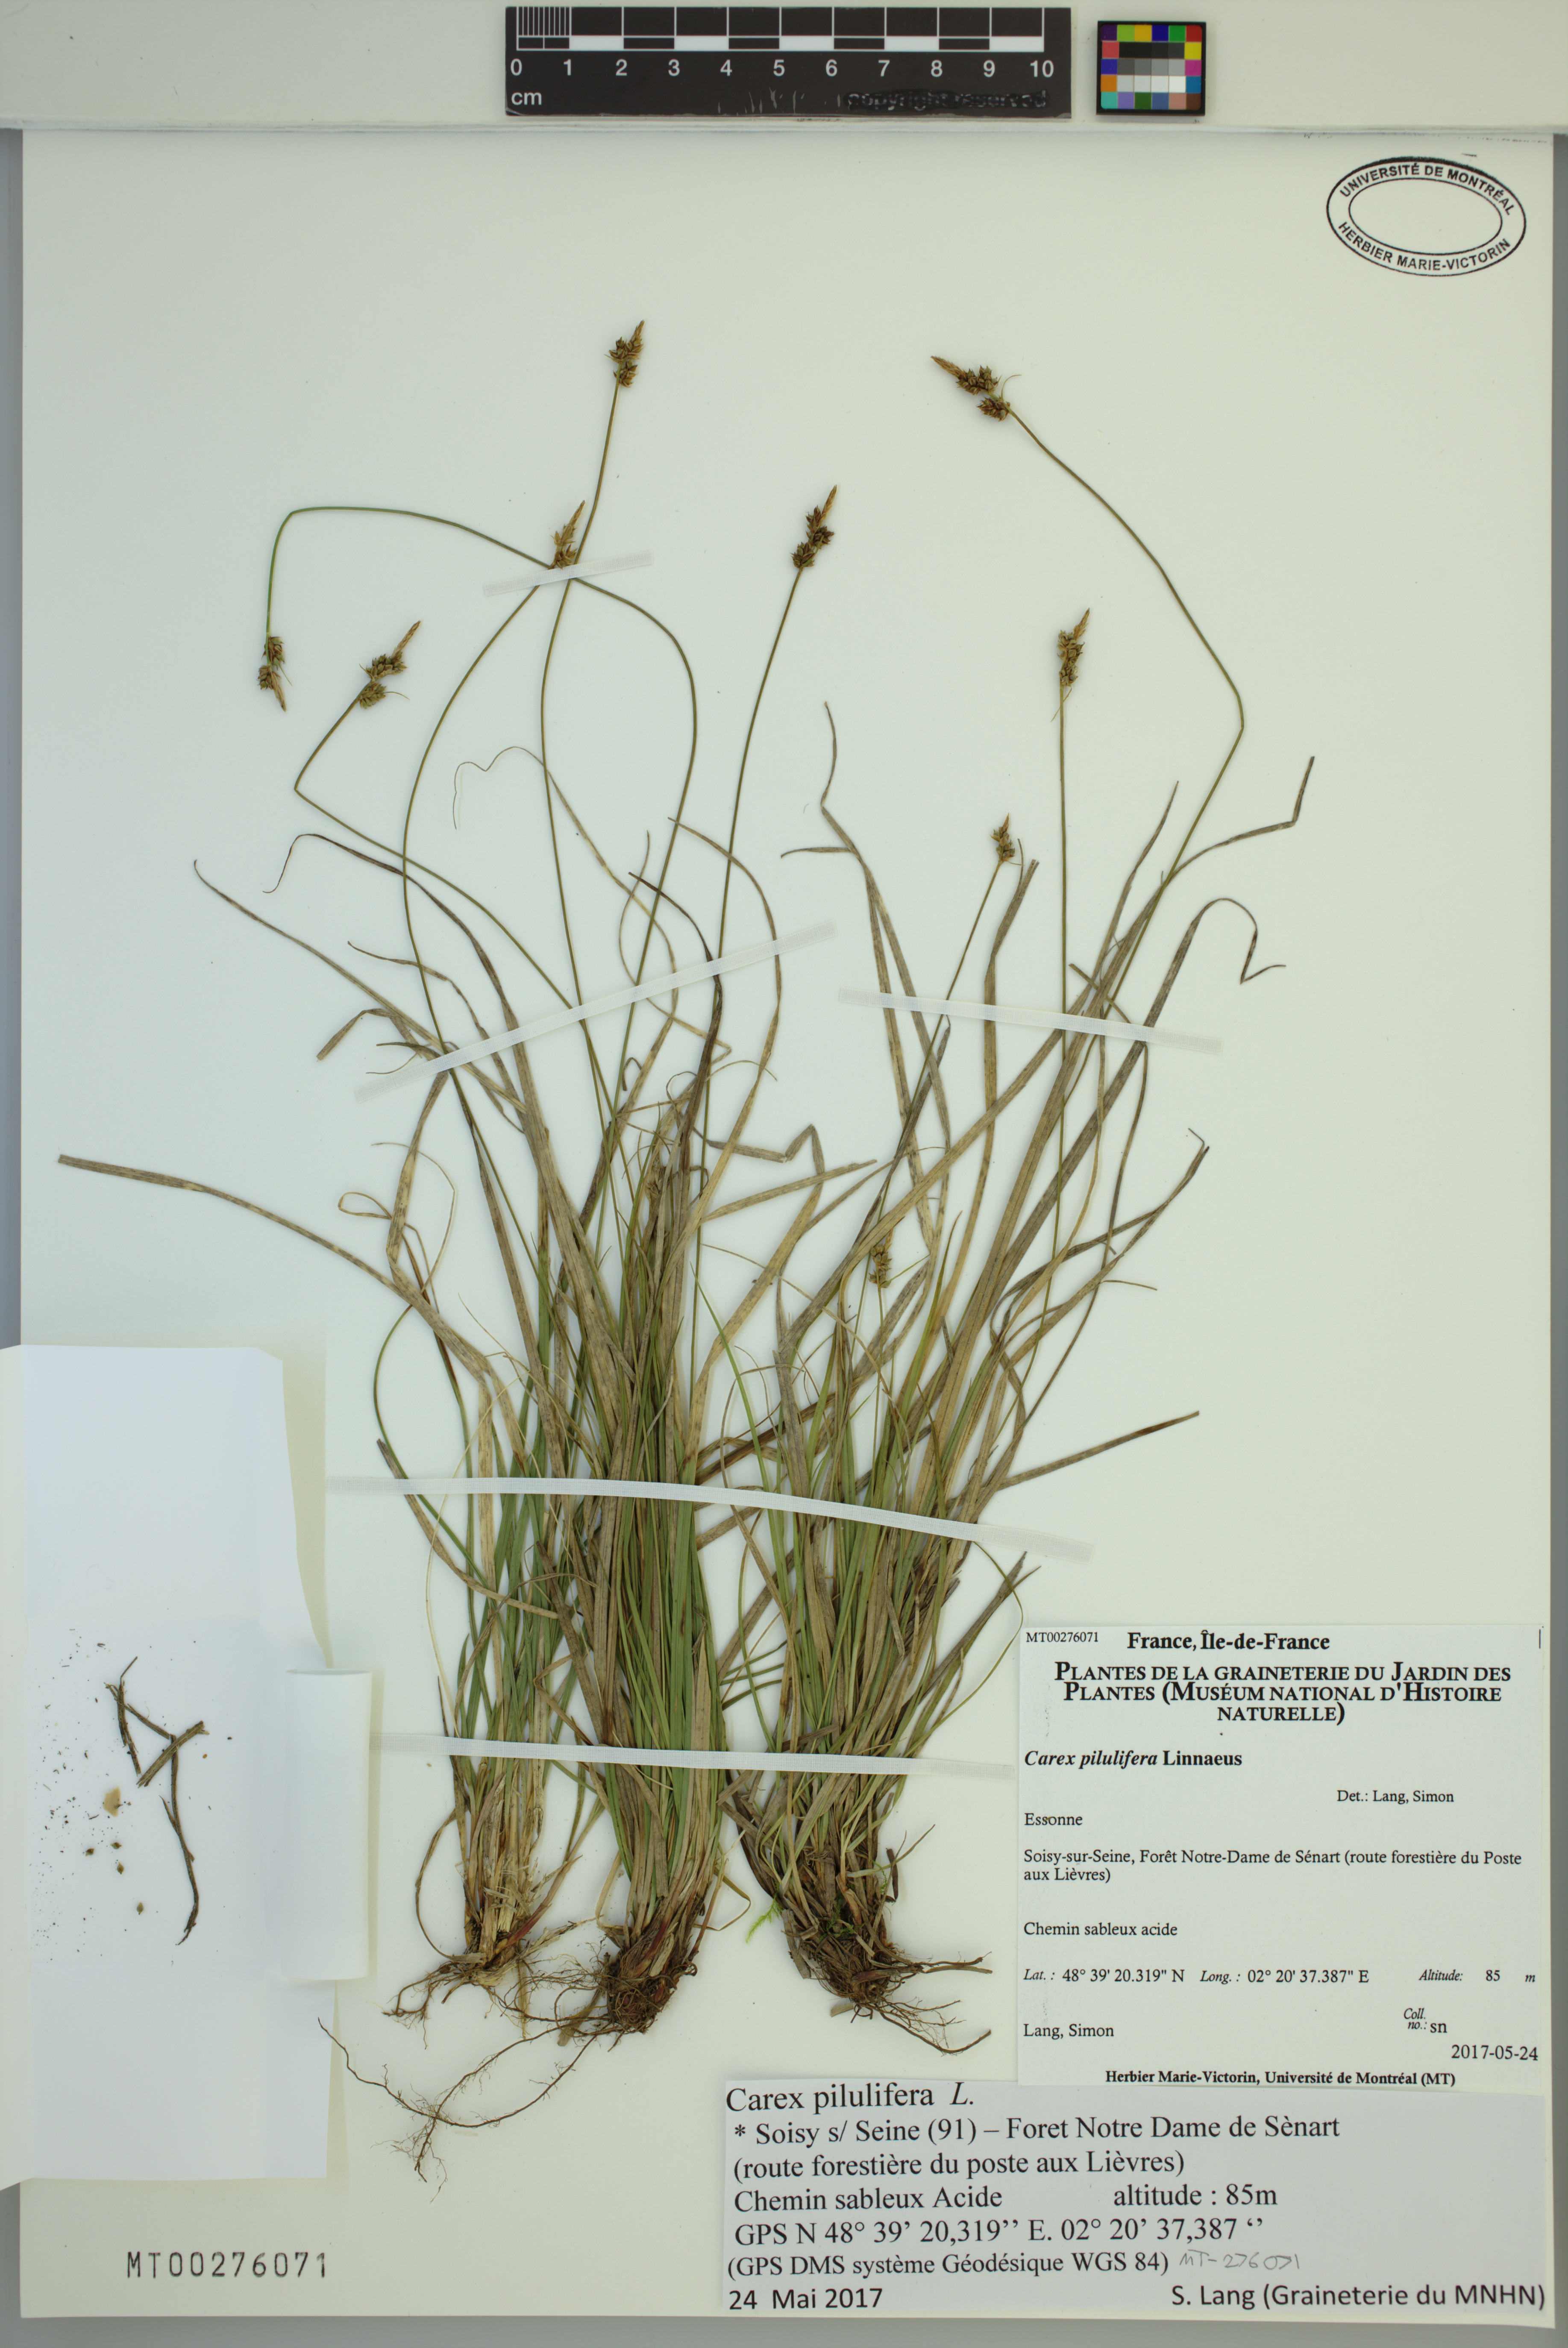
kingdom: Plantae
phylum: Tracheophyta
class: Liliopsida
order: Poales
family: Cyperaceae
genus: Carex
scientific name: Carex pilulifera
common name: Pill sedge
